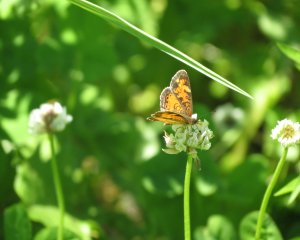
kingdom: Animalia
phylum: Arthropoda
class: Insecta
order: Lepidoptera
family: Nymphalidae
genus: Phyciodes
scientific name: Phyciodes tharos
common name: Northern Crescent
